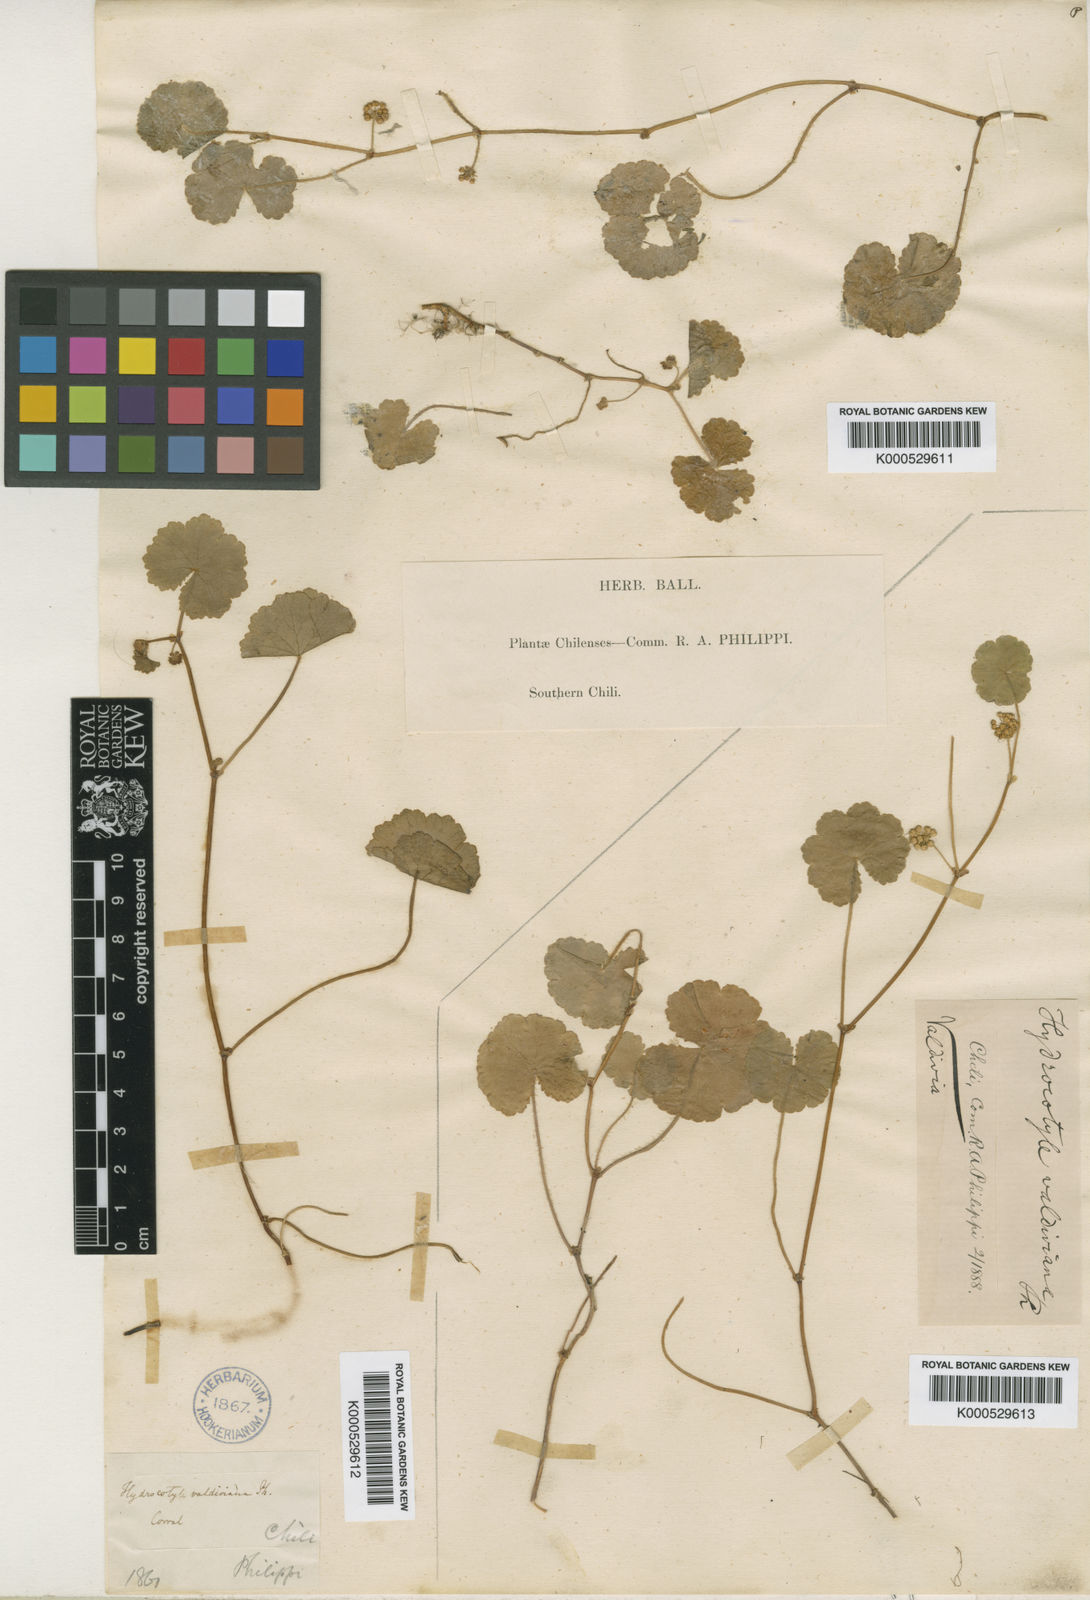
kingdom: Plantae
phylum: Tracheophyta
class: Magnoliopsida
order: Apiales
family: Araliaceae
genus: Hydrocotyle
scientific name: Hydrocotyle chamaemorus
